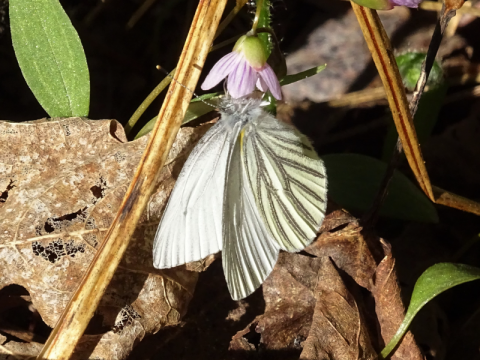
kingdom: Animalia
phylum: Arthropoda
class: Insecta
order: Lepidoptera
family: Pieridae
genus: Pieris
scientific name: Pieris oleracea
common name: Mustard White
